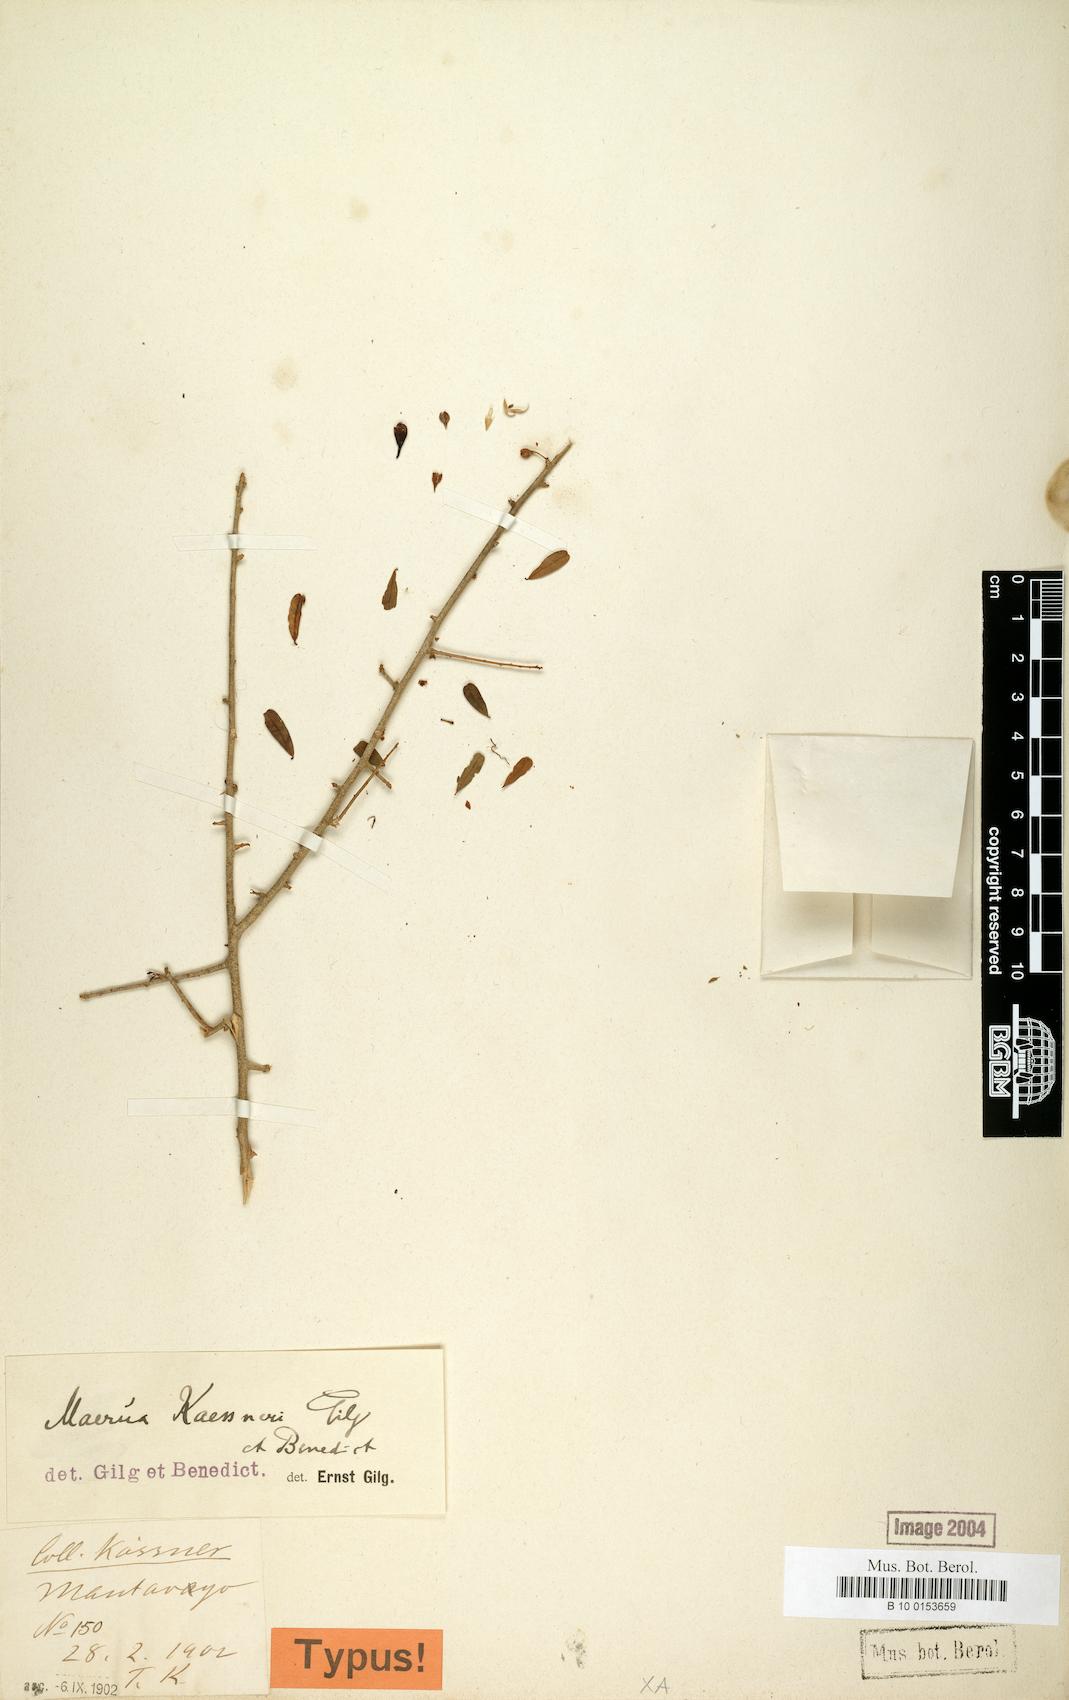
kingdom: Plantae
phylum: Tracheophyta
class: Magnoliopsida
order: Brassicales
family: Capparaceae
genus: Maerua
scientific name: Maerua kaessneri
